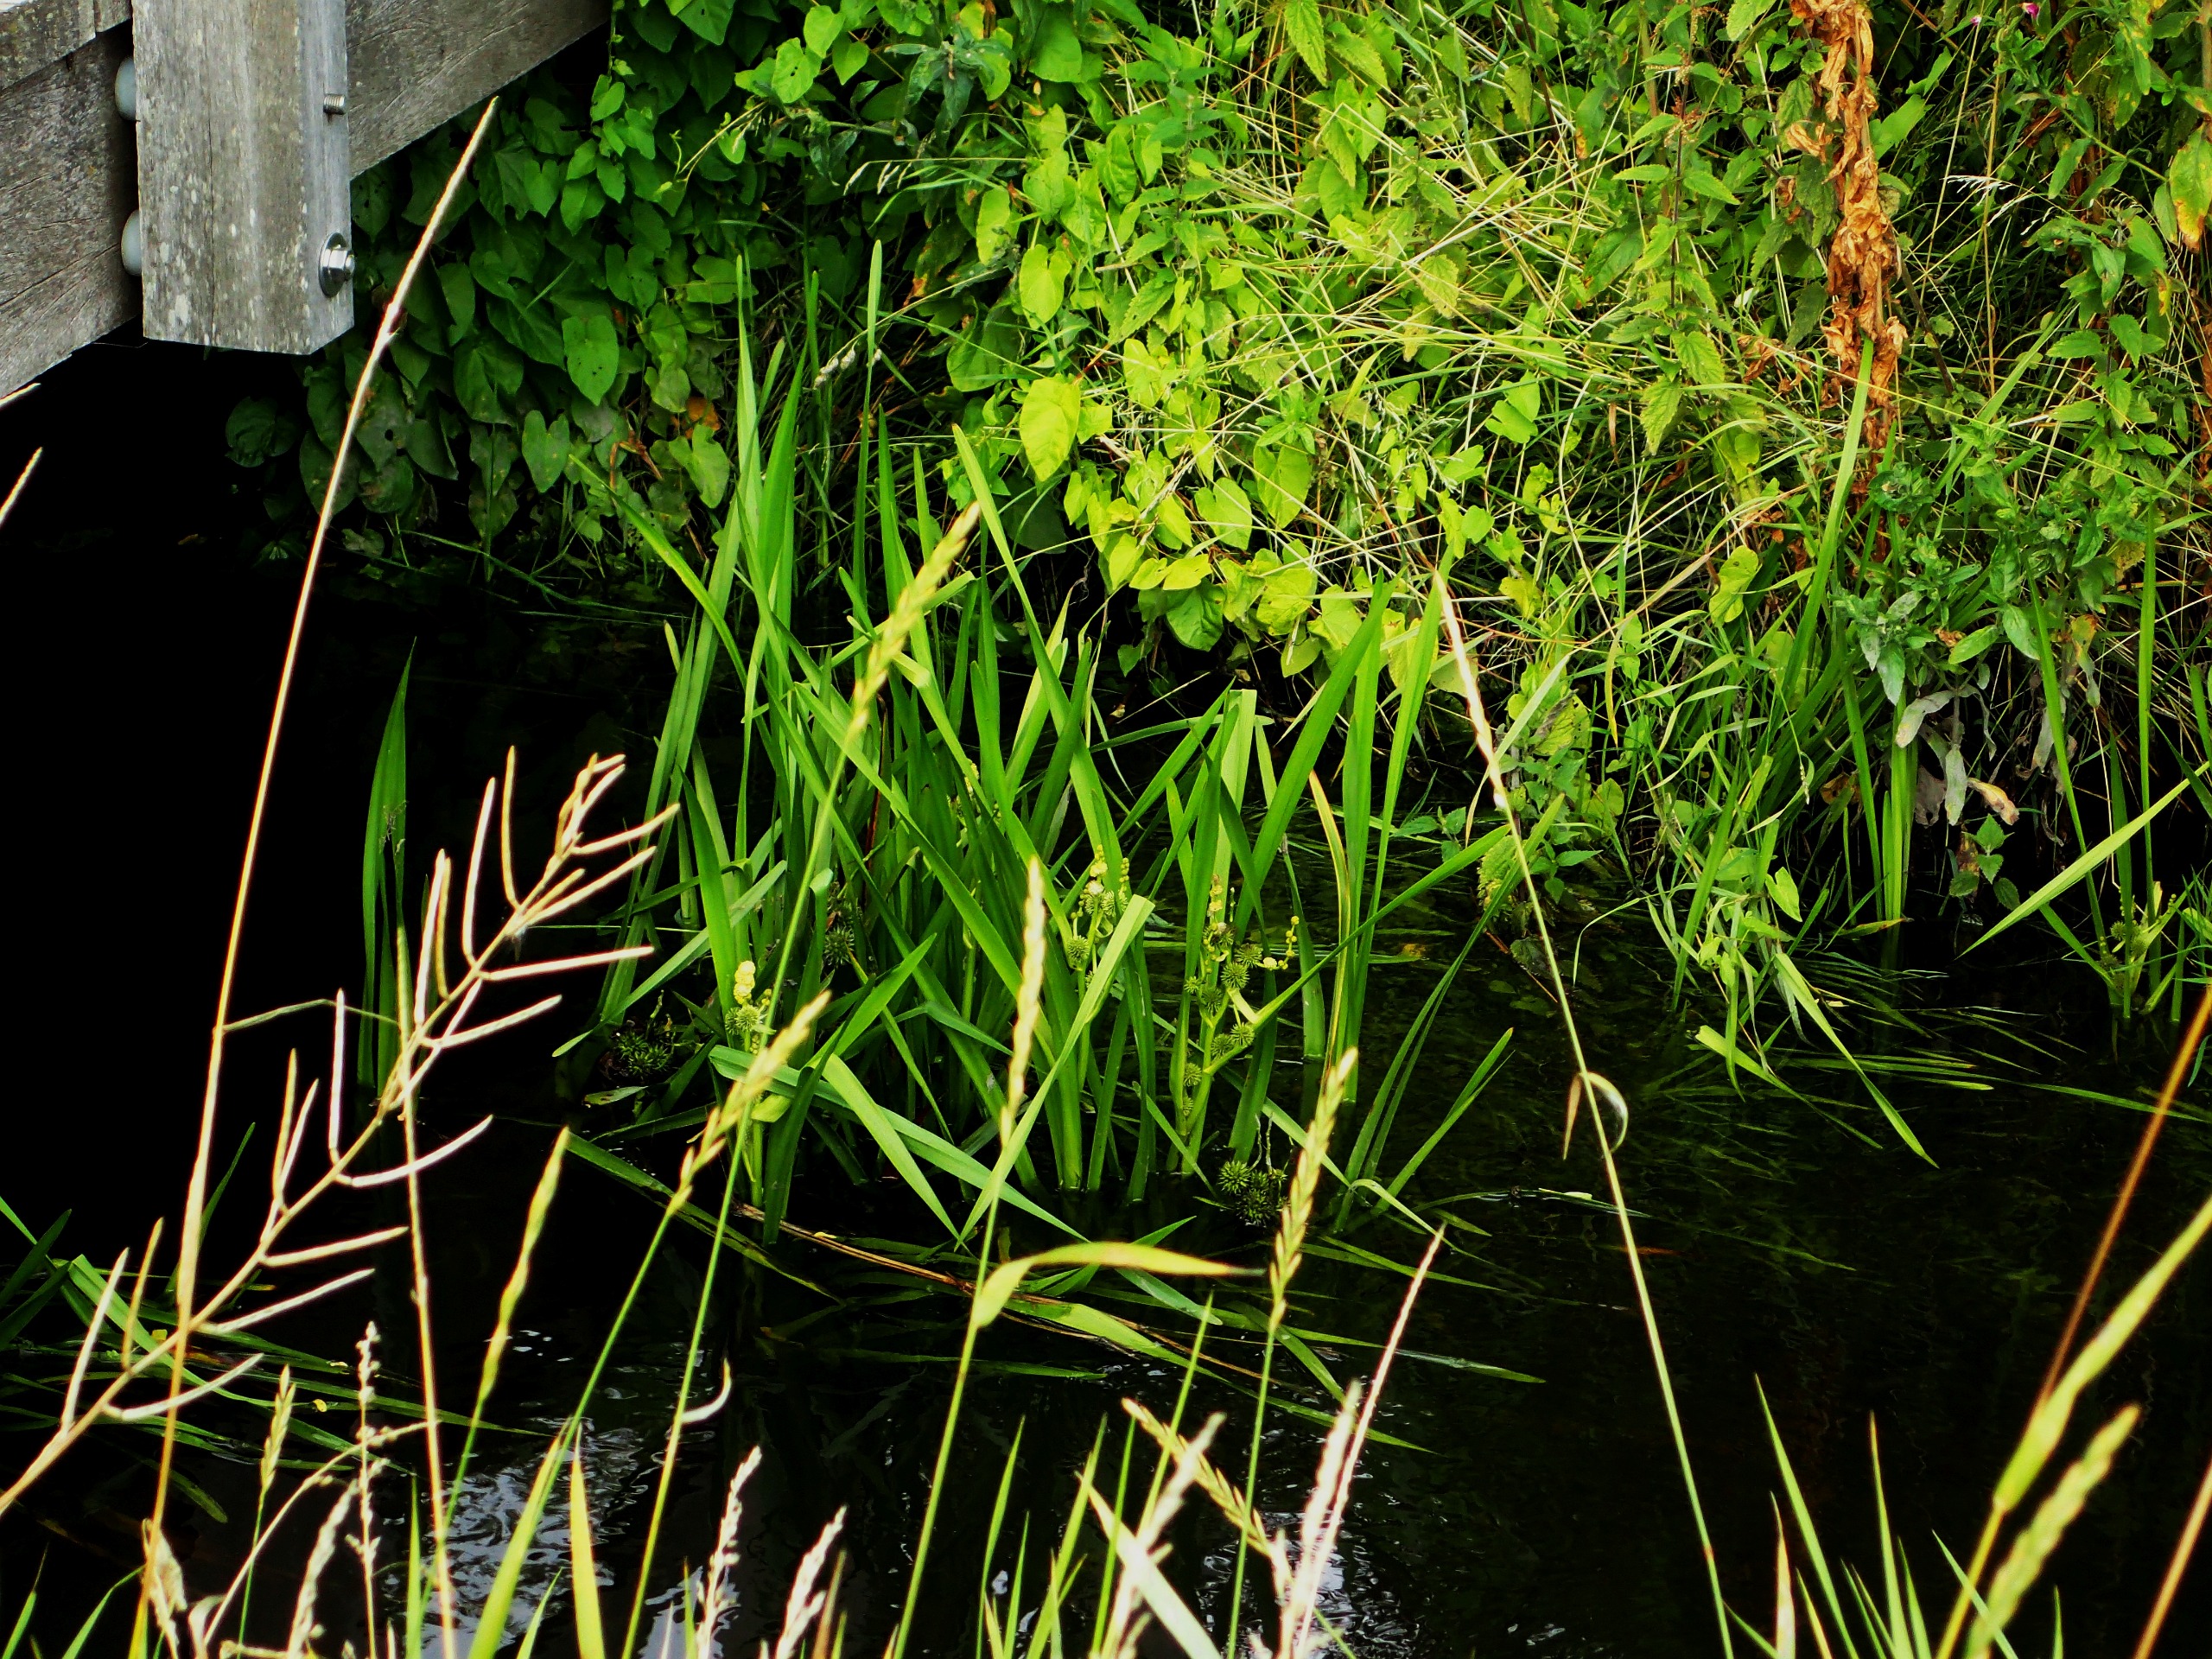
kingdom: Plantae
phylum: Tracheophyta
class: Liliopsida
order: Poales
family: Typhaceae
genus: Sparganium
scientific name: Sparganium erectum
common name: Grenet pindsvineknop
